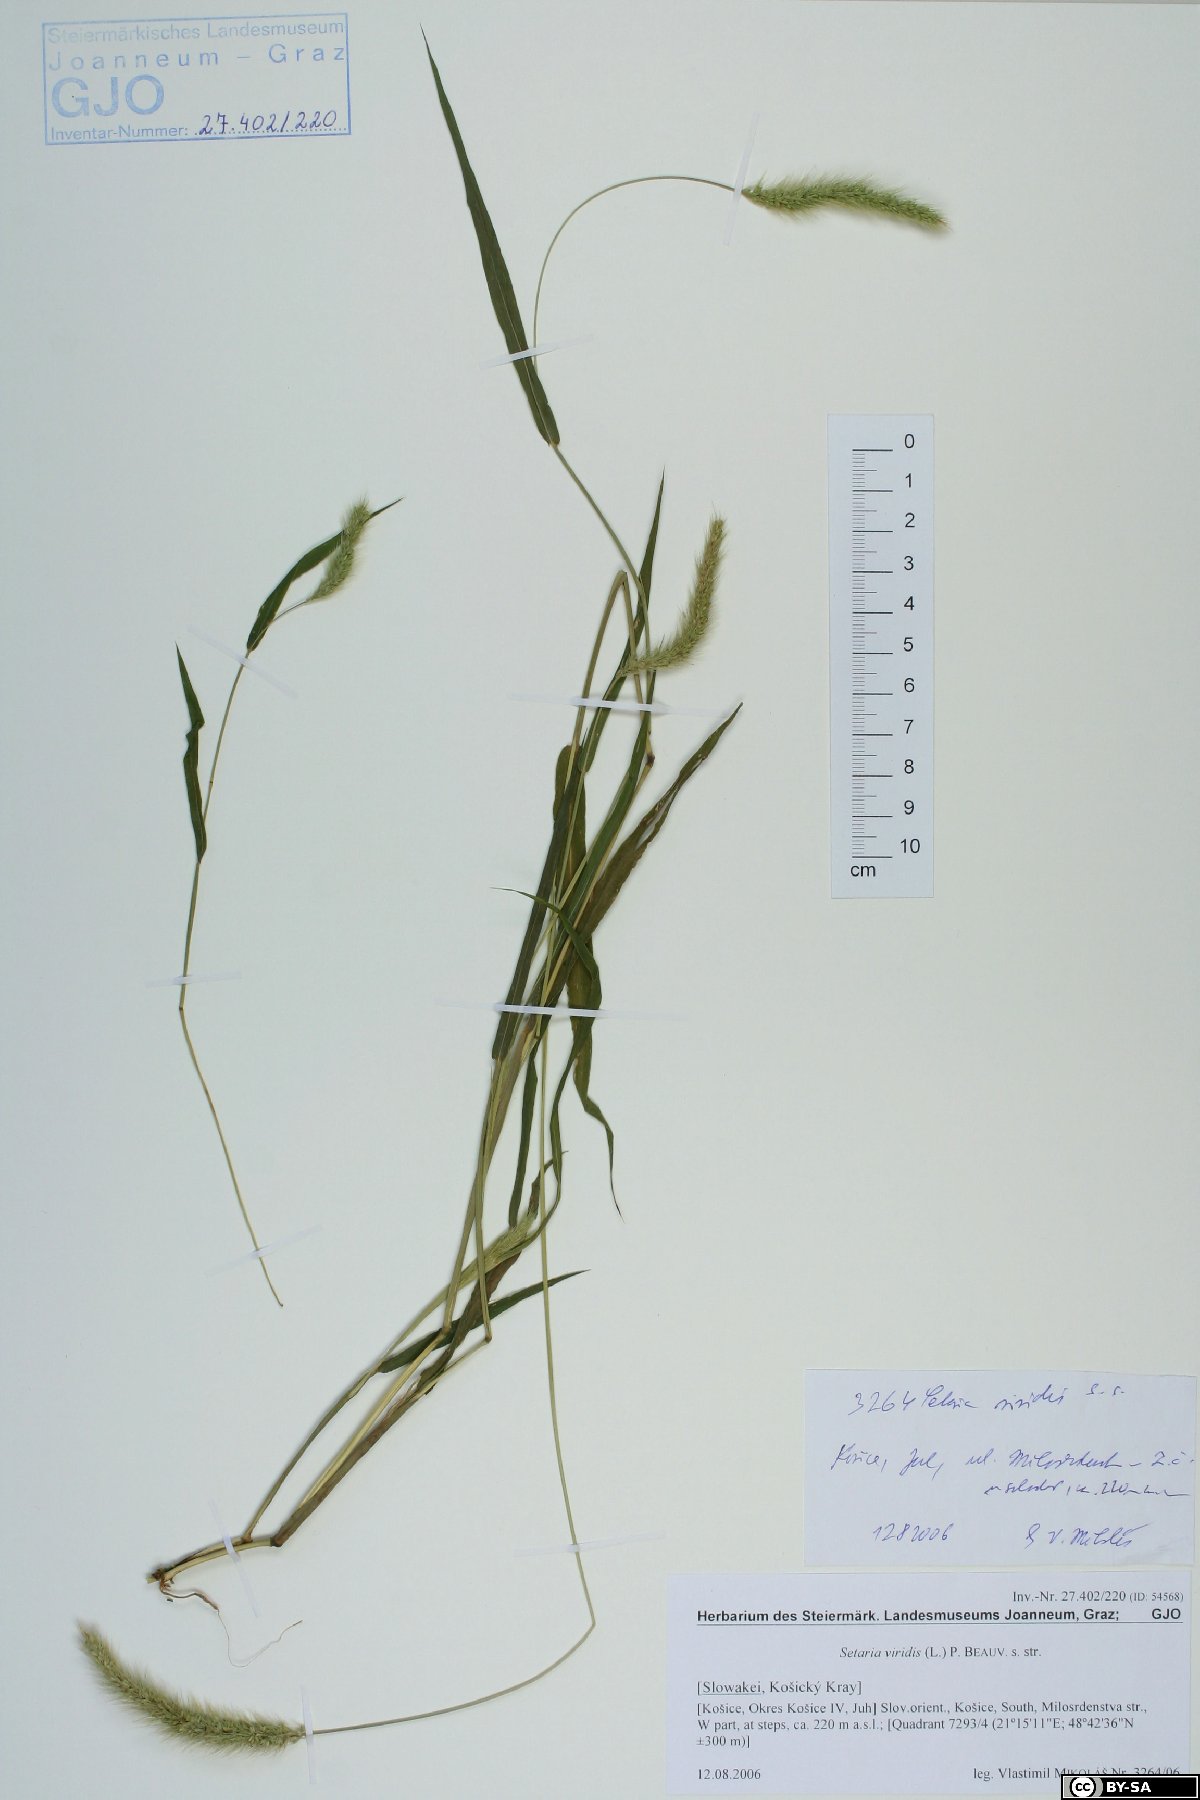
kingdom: Plantae
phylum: Tracheophyta
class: Liliopsida
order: Poales
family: Poaceae
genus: Setaria
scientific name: Setaria viridis
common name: Green bristlegrass
